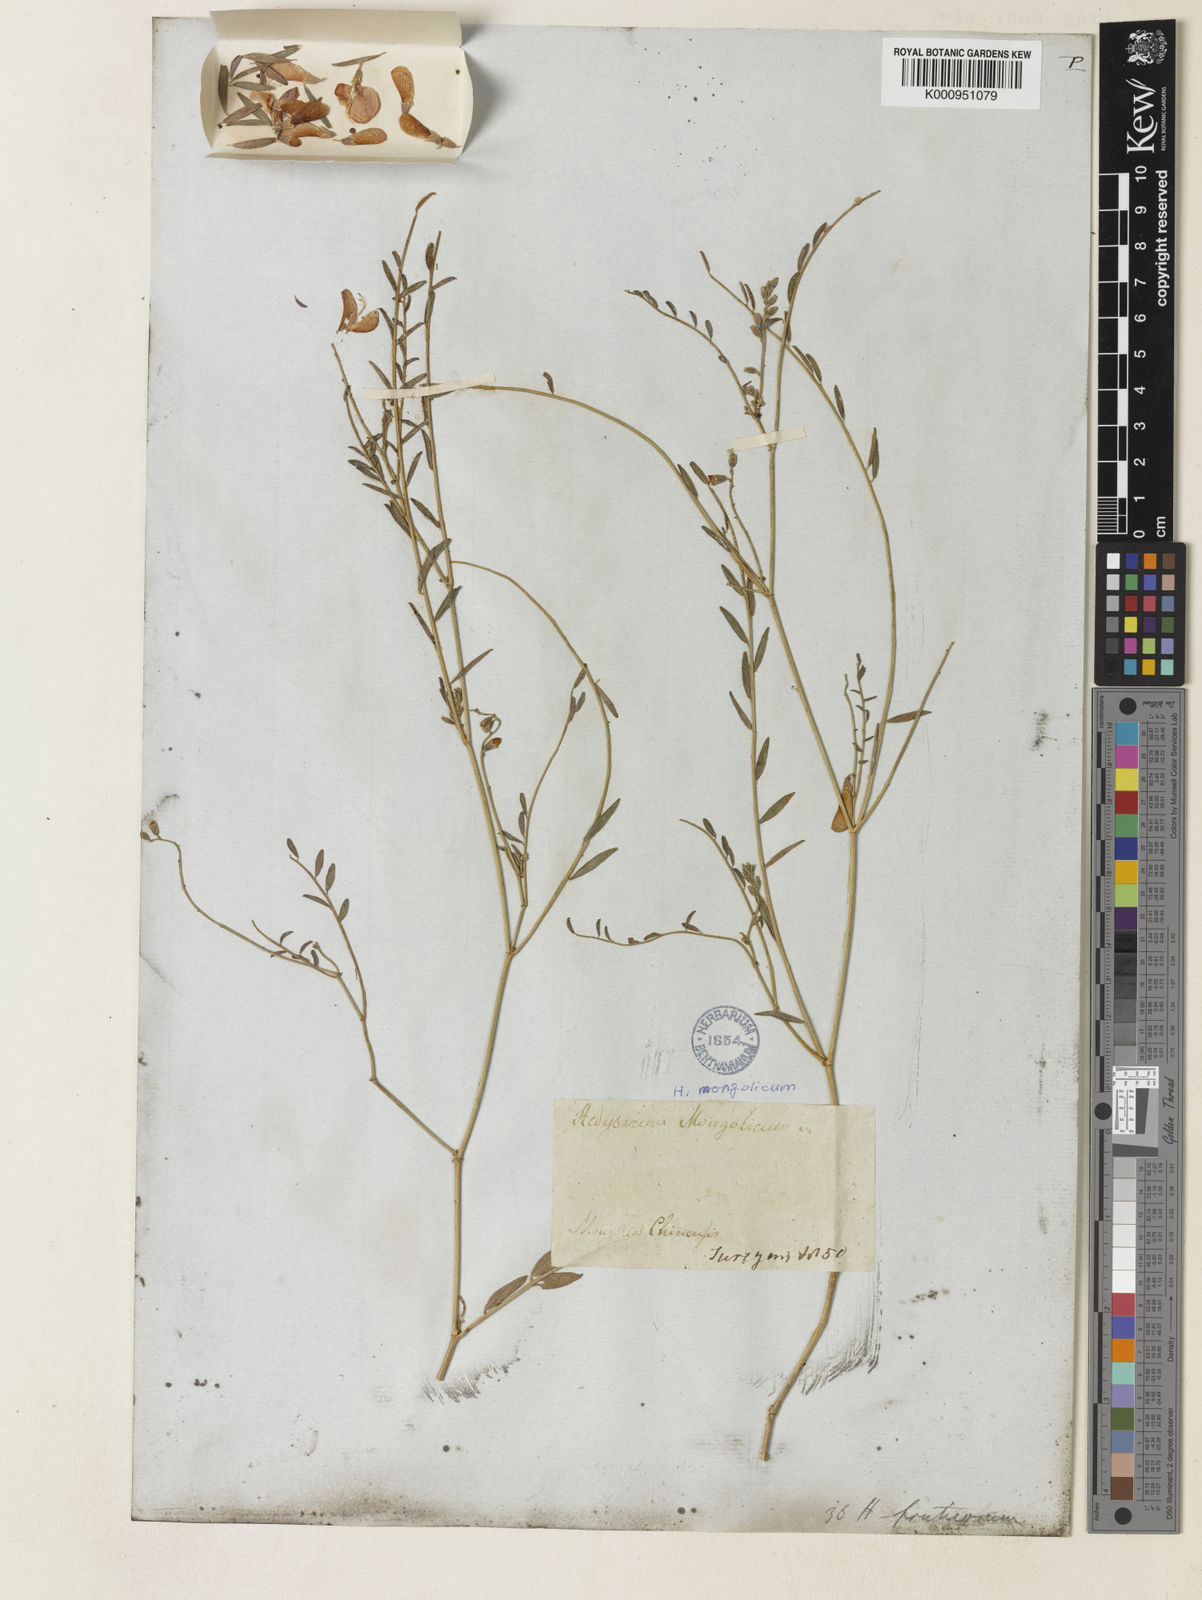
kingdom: Plantae
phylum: Tracheophyta
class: Magnoliopsida
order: Fabales
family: Fabaceae
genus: Corethrodendron
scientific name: Corethrodendron fruticosum
